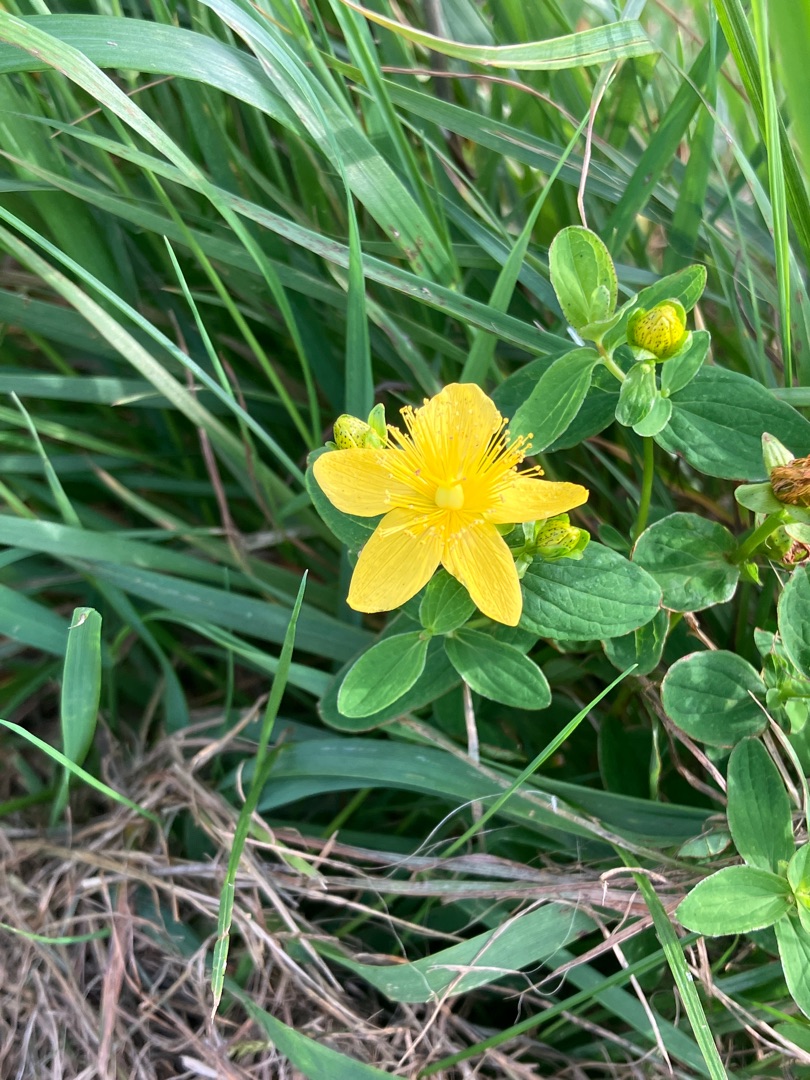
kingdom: Plantae
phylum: Tracheophyta
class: Magnoliopsida
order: Malpighiales
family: Hypericaceae
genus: Hypericum
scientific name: Hypericum maculatum
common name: Kantet perikon
